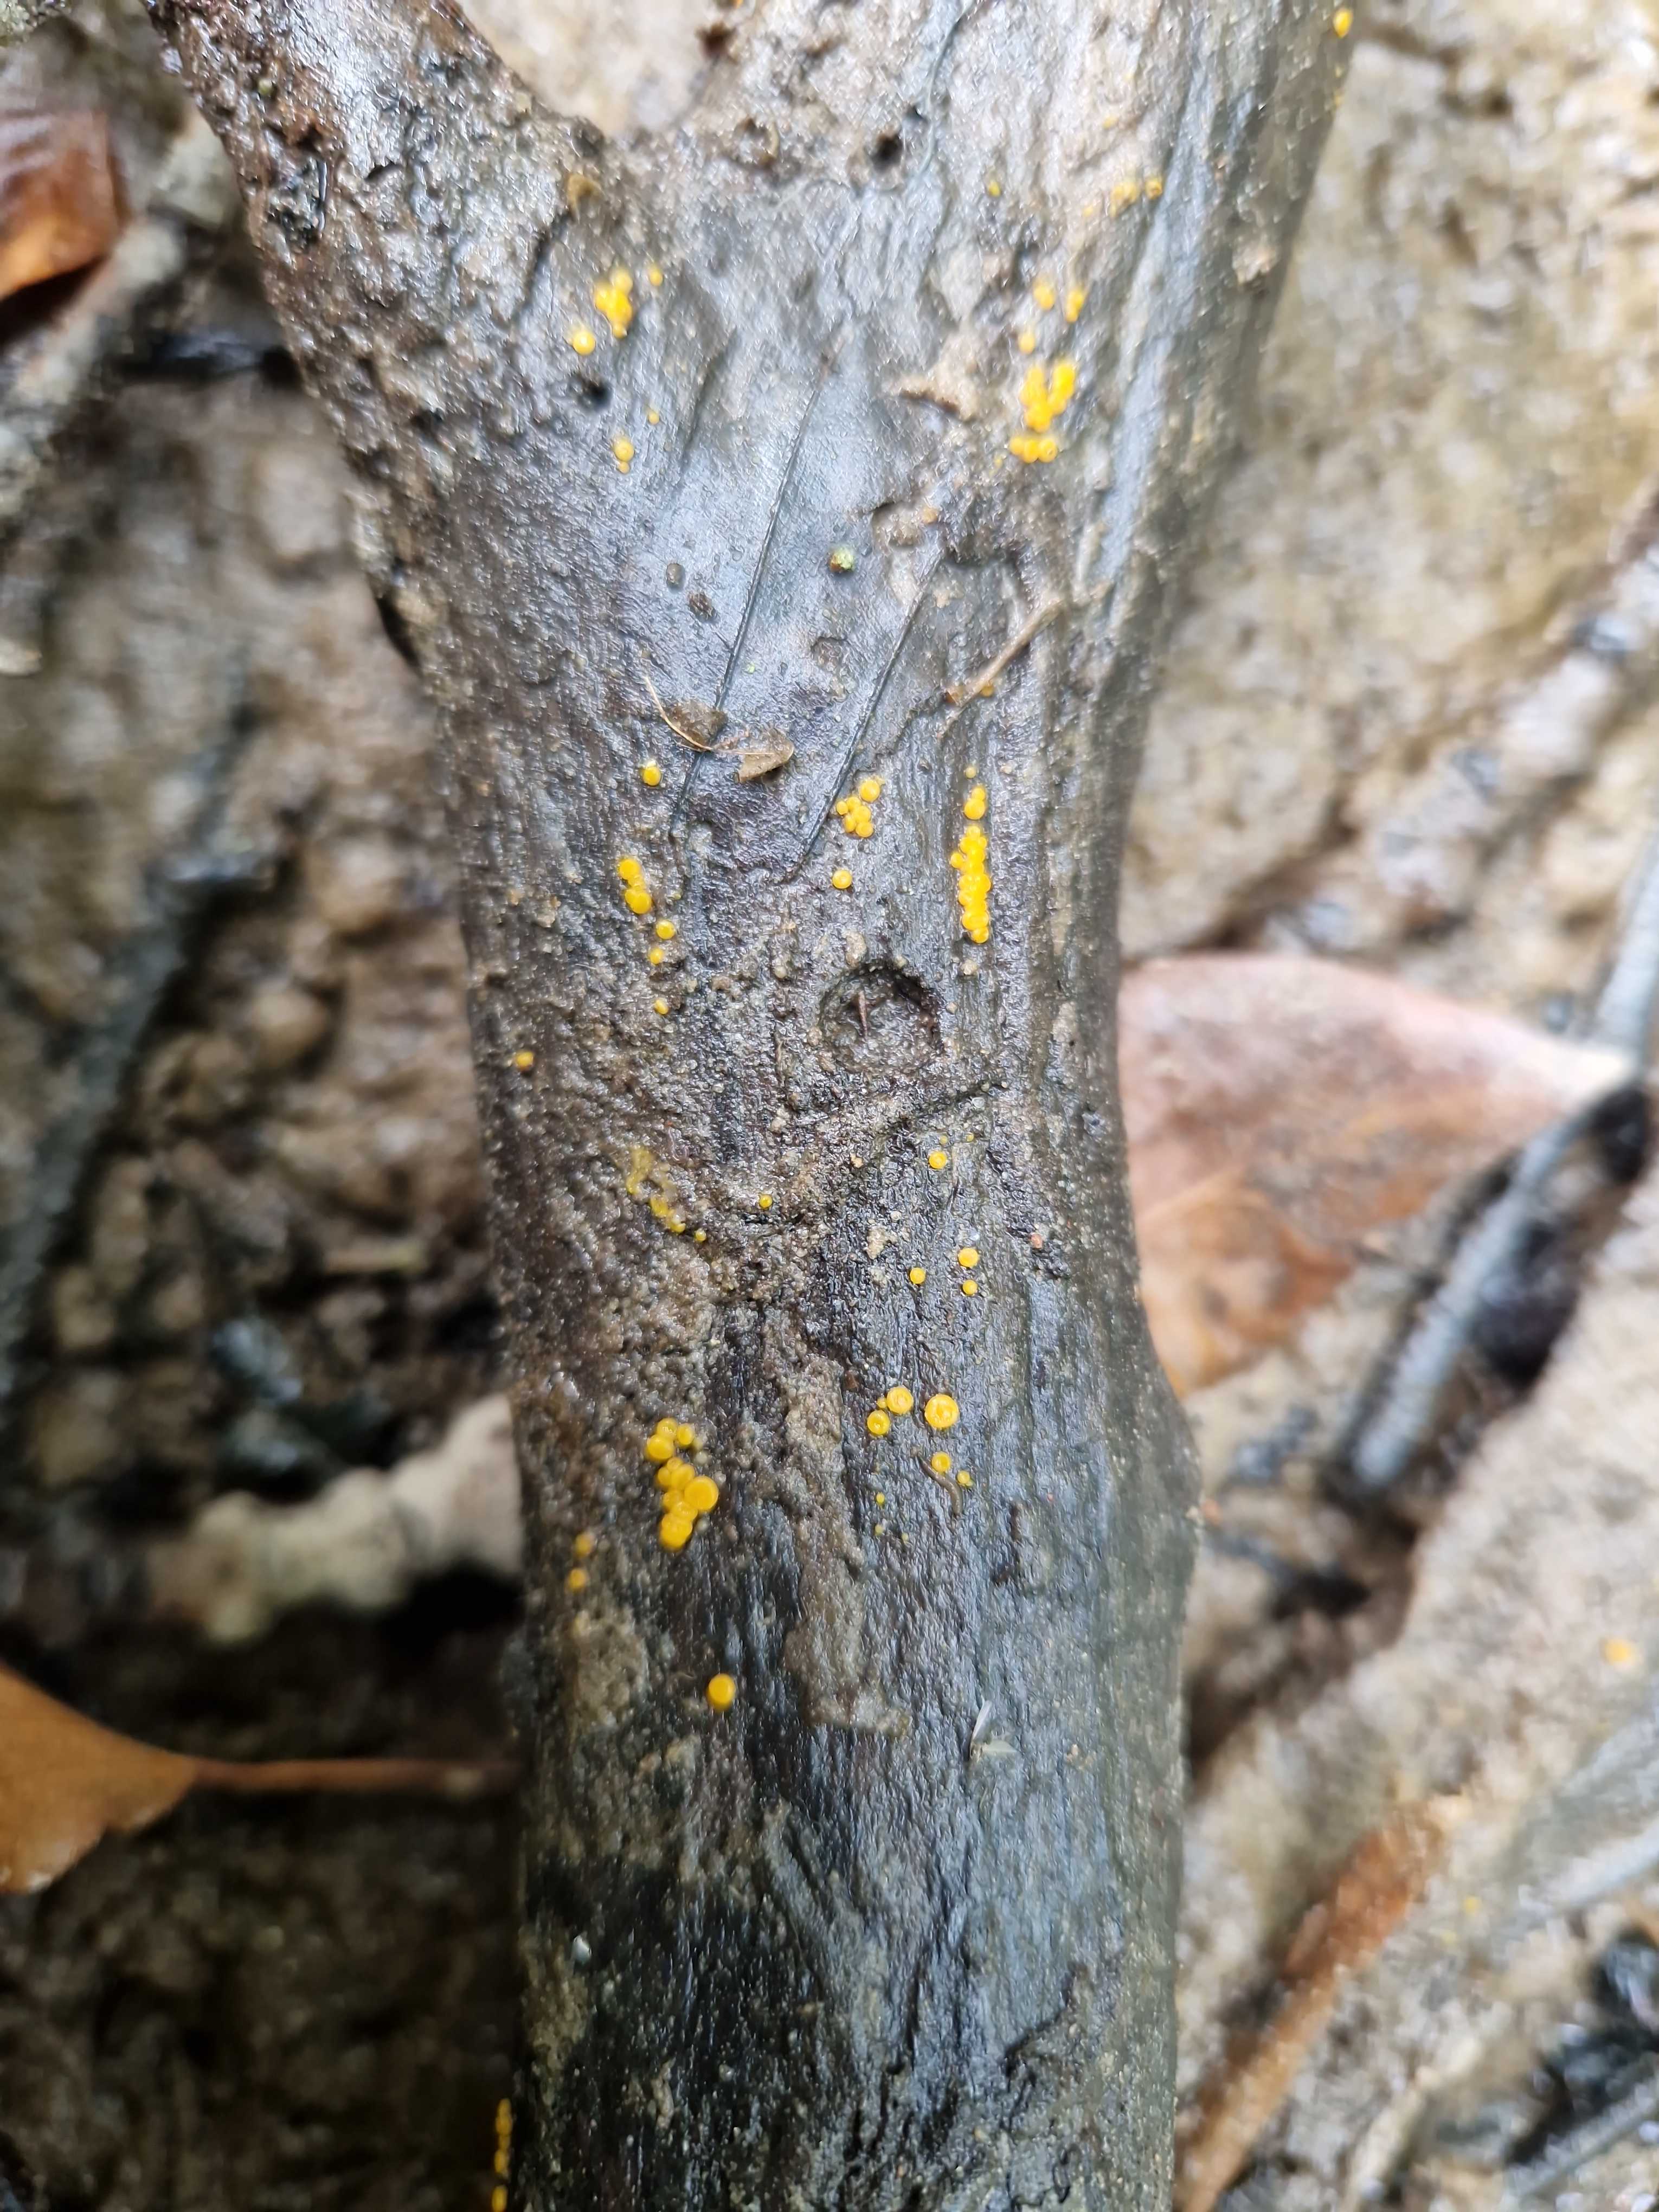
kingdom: Fungi
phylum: Ascomycota
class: Pezizomycetes
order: Pezizales
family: Pyronemataceae
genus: Miladina
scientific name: Miladina lecithina
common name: vandbæger
